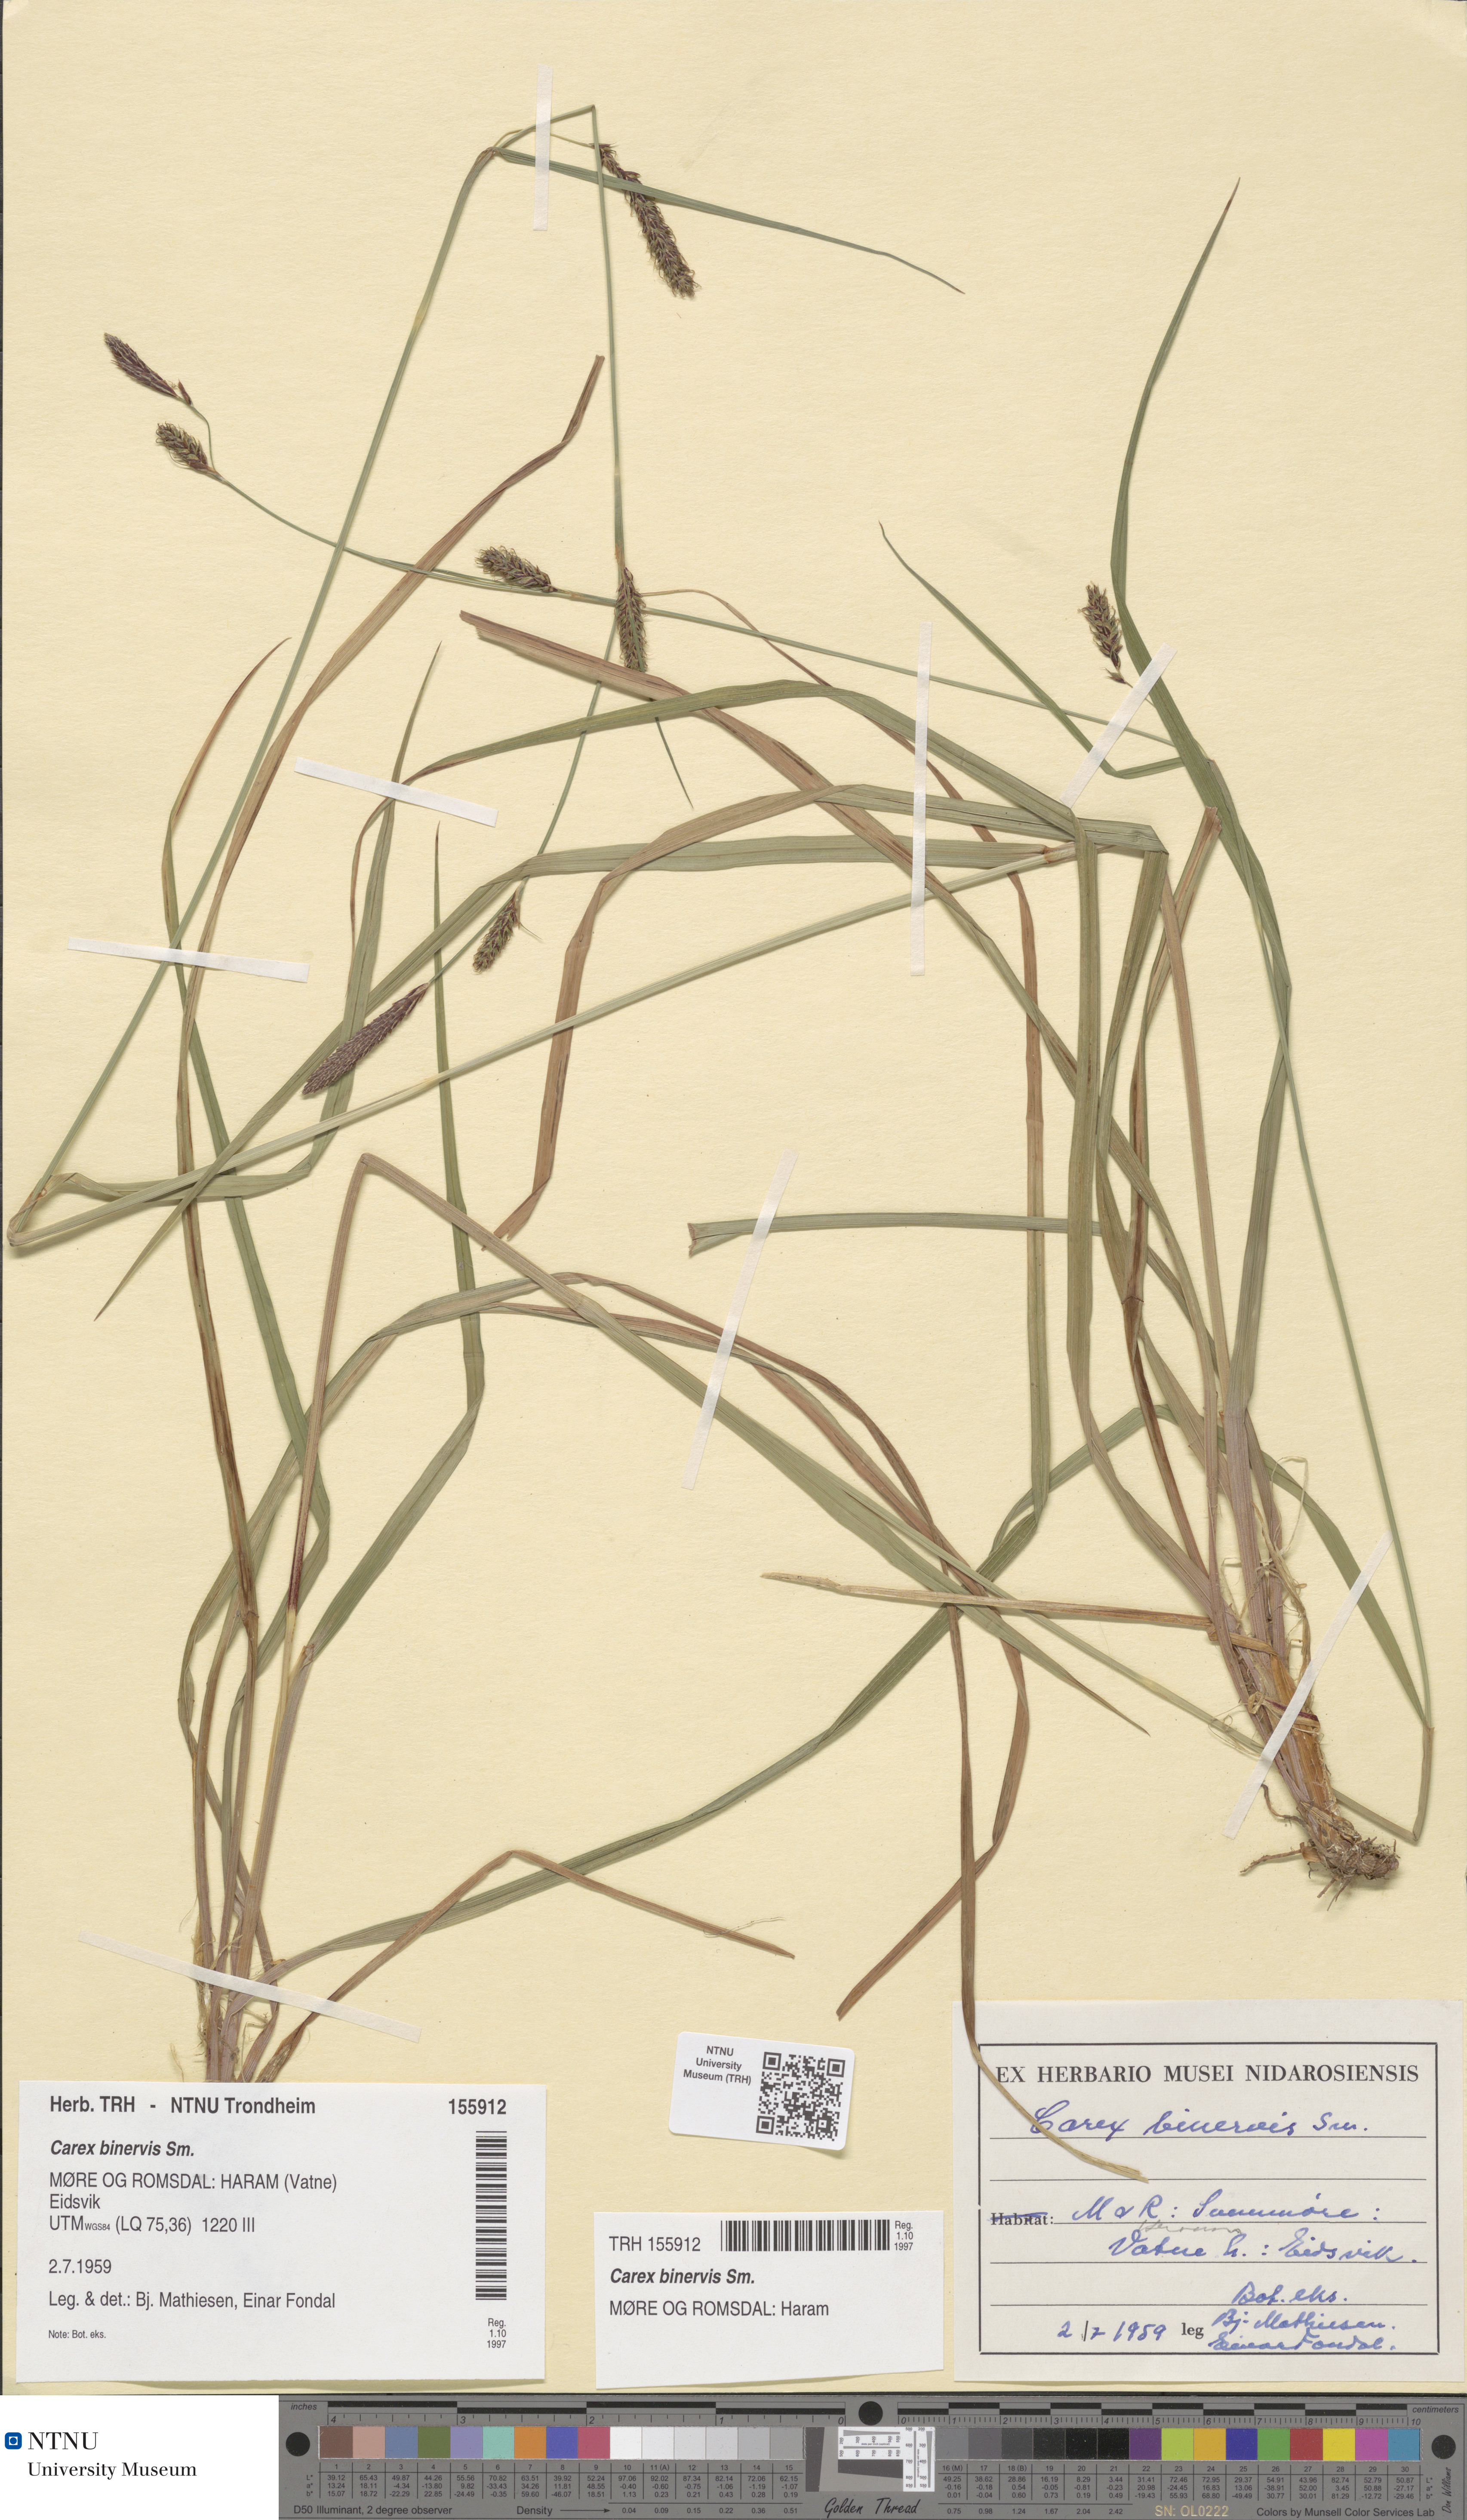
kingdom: Plantae
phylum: Tracheophyta
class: Liliopsida
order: Poales
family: Cyperaceae
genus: Carex
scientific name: Carex binervis
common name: Green-ribbed sedge
